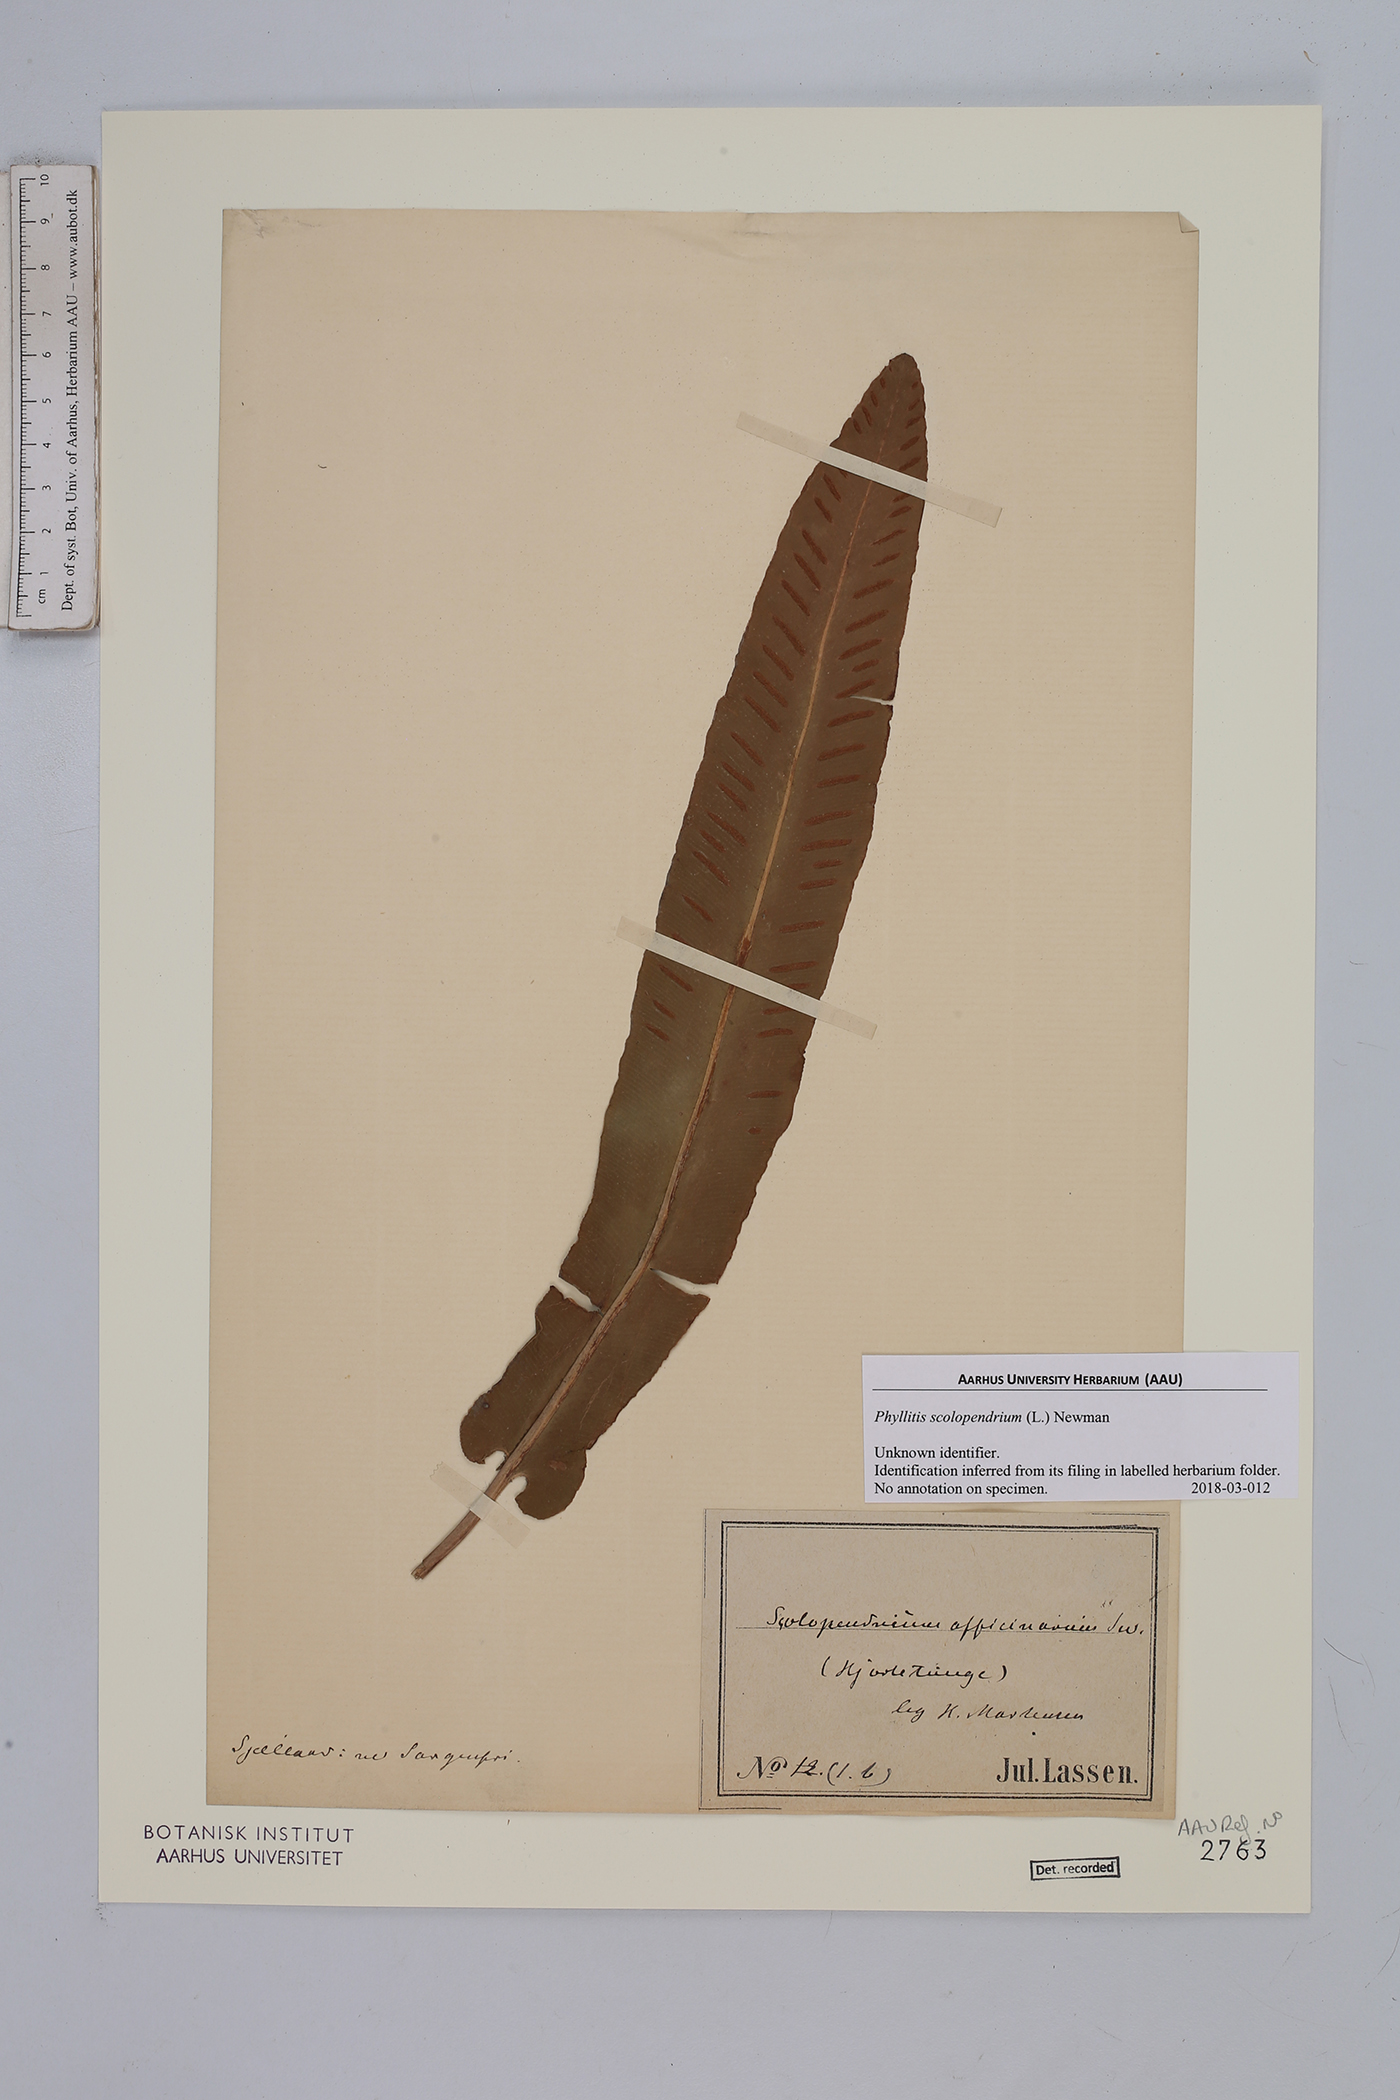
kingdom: Plantae
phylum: Tracheophyta
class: Polypodiopsida
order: Polypodiales
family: Aspleniaceae
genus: Asplenium
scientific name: Asplenium scolopendrium
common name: Hart's-tongue fern
